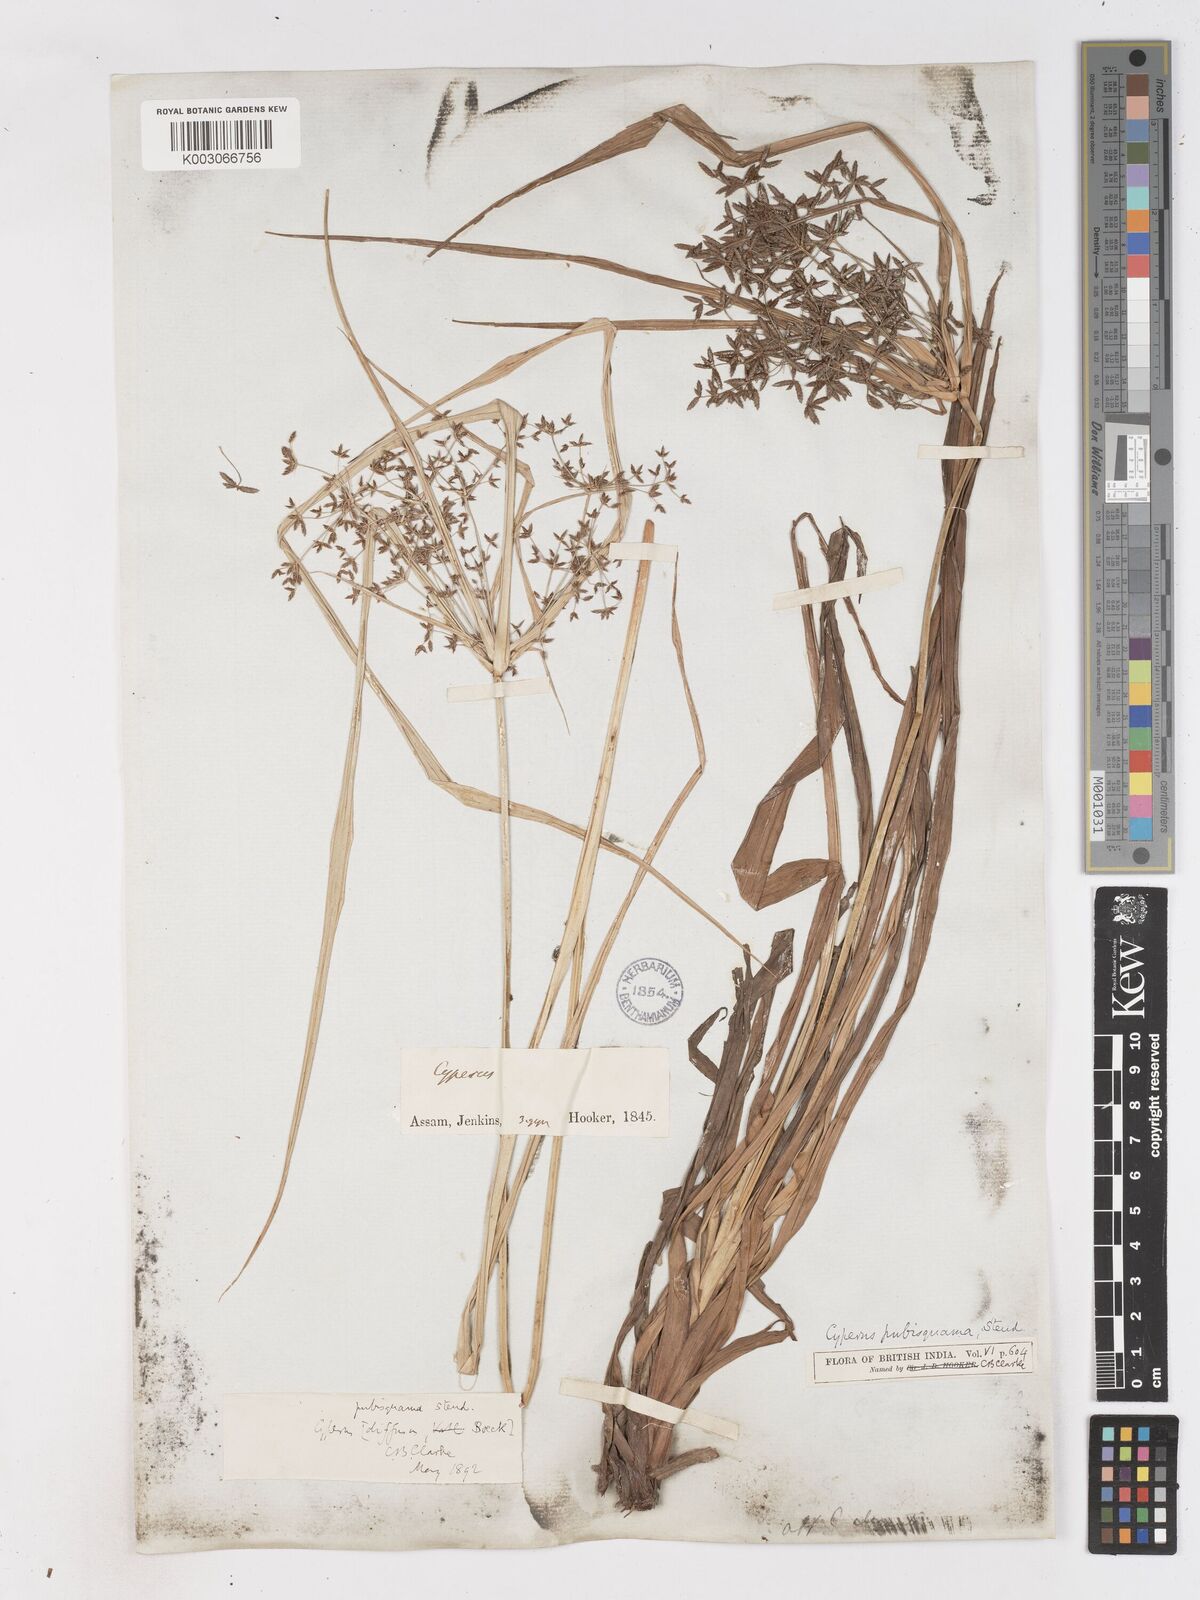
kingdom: Plantae
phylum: Tracheophyta
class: Liliopsida
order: Poales
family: Cyperaceae
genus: Cyperus
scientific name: Cyperus diffusus
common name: Dwarf umbrella grass
